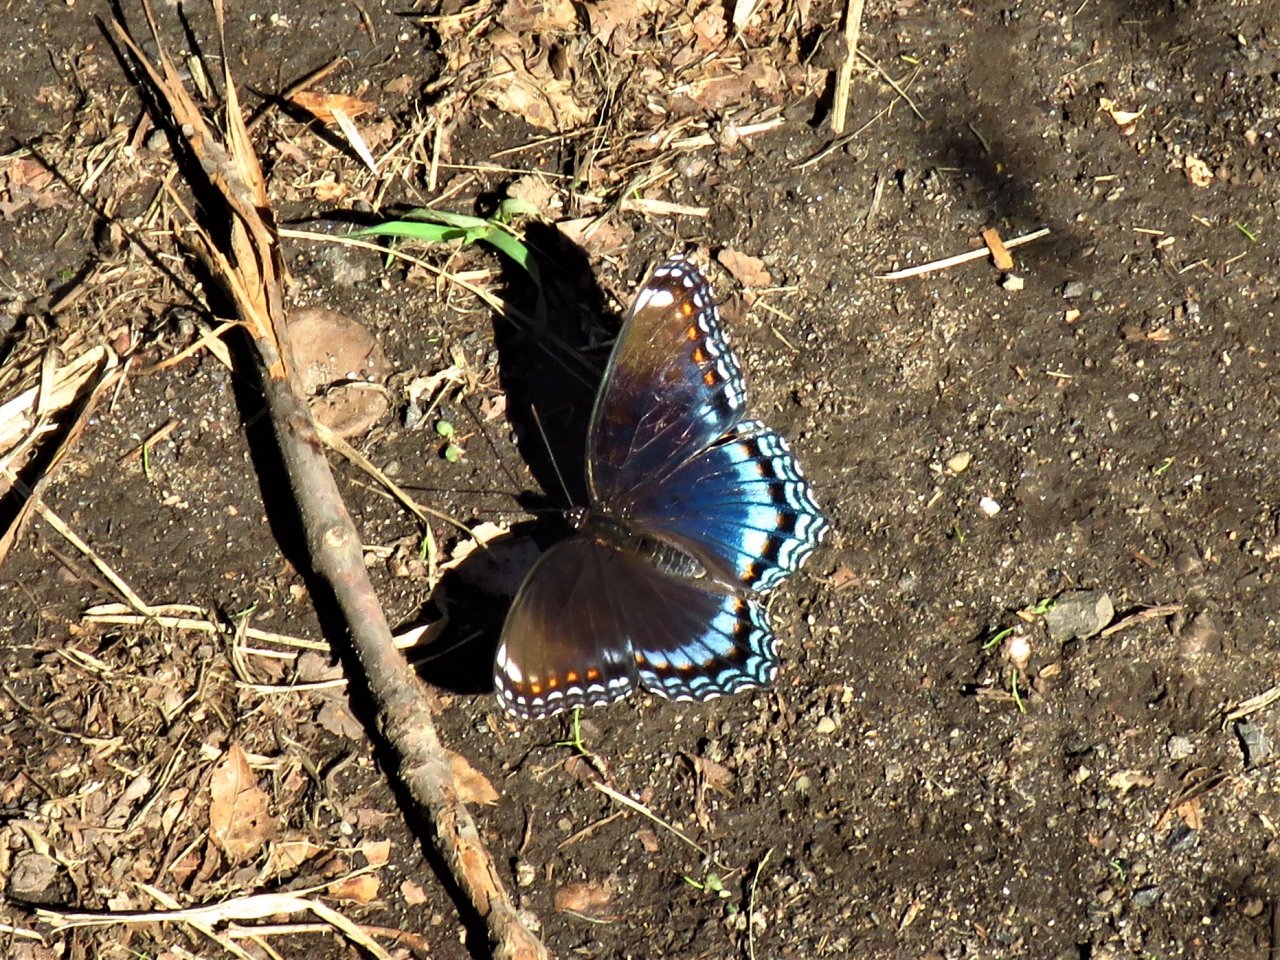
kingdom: Animalia
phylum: Arthropoda
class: Insecta
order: Lepidoptera
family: Nymphalidae
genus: Limenitis
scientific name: Limenitis astyanax
